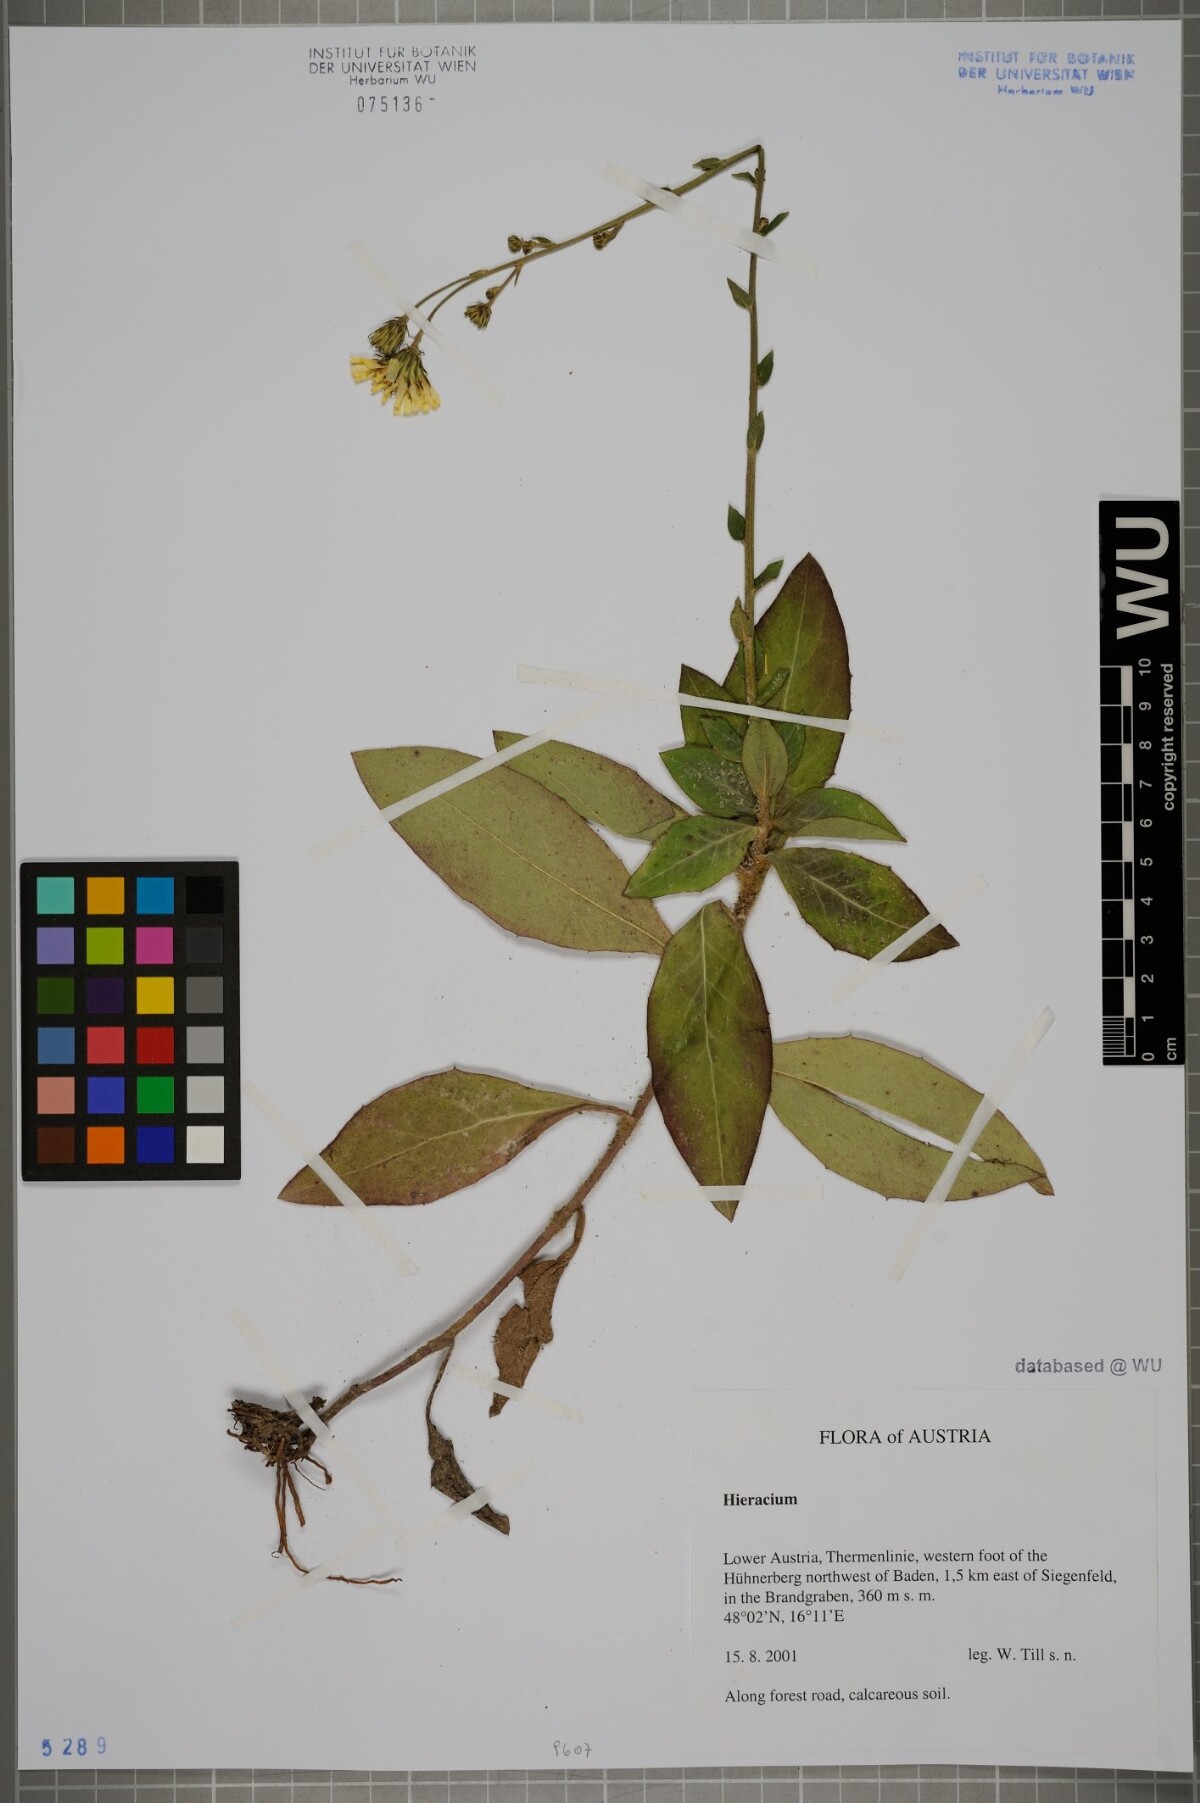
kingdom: Plantae
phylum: Tracheophyta
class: Magnoliopsida
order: Asterales
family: Asteraceae
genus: Hieracium
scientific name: Hieracium
